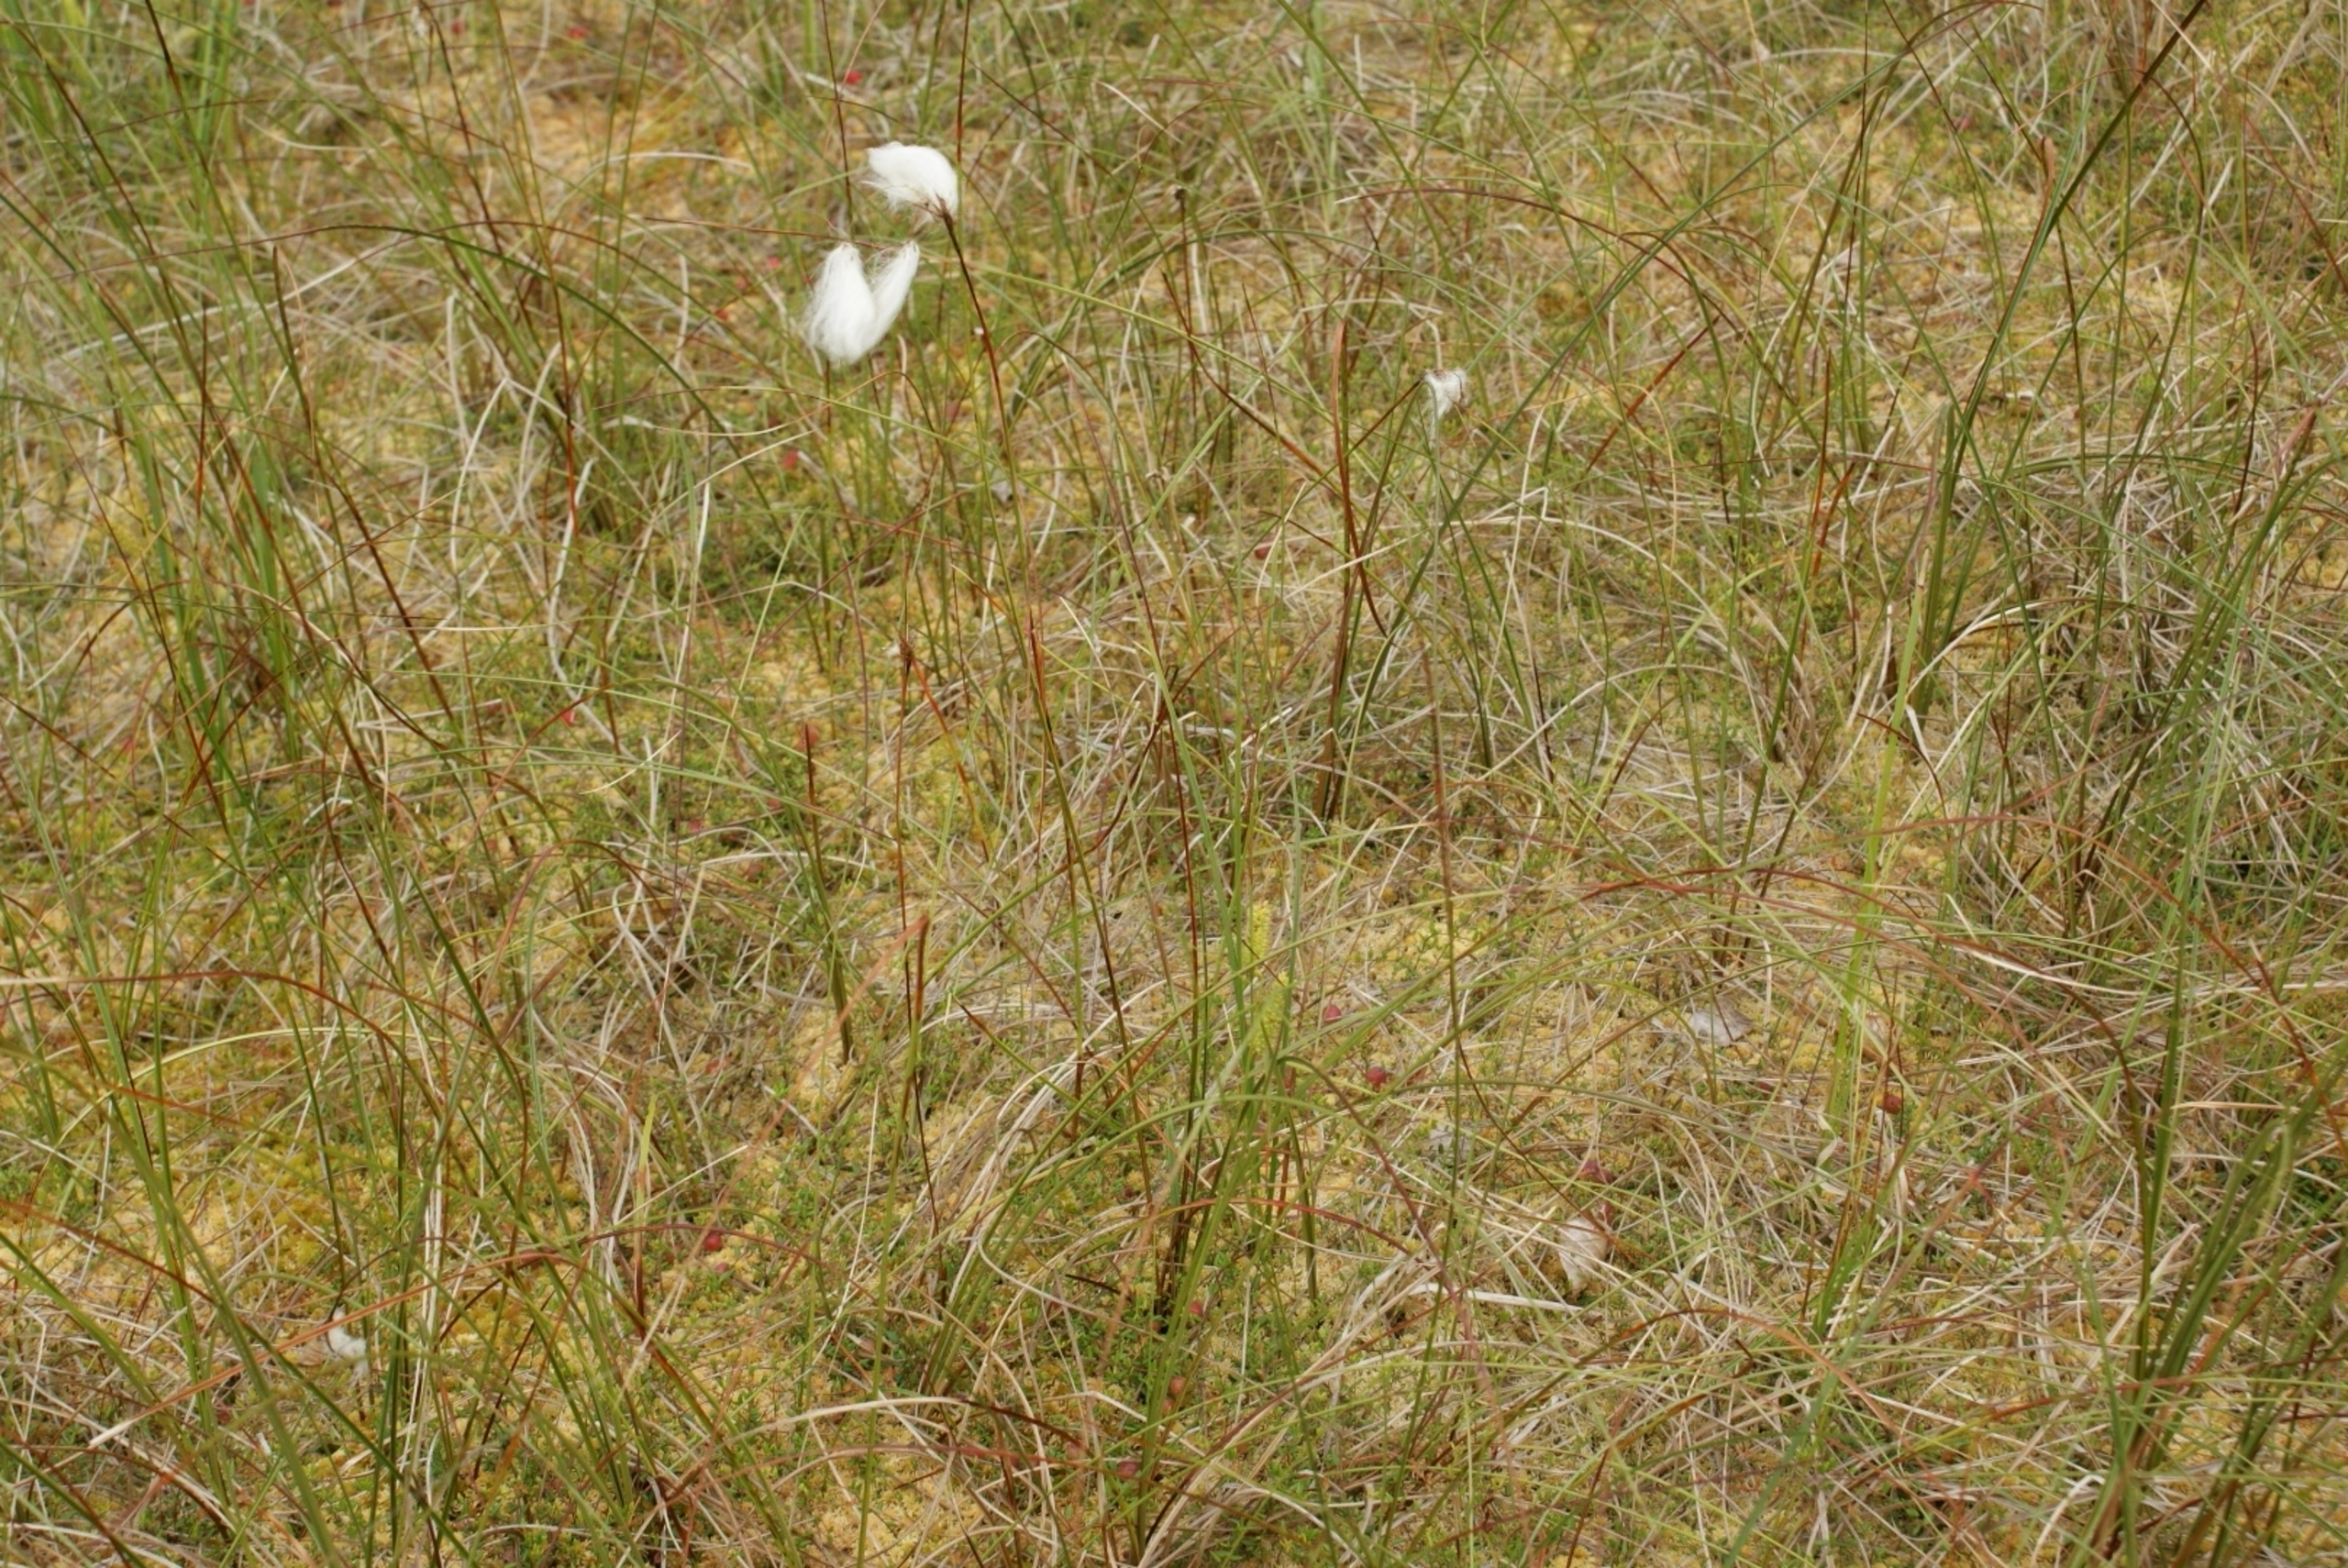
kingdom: Plantae
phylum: Tracheophyta
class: Liliopsida
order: Poales
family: Cyperaceae
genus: Eriophorum
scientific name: Eriophorum angustifolium
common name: Smalbladet kæruld
